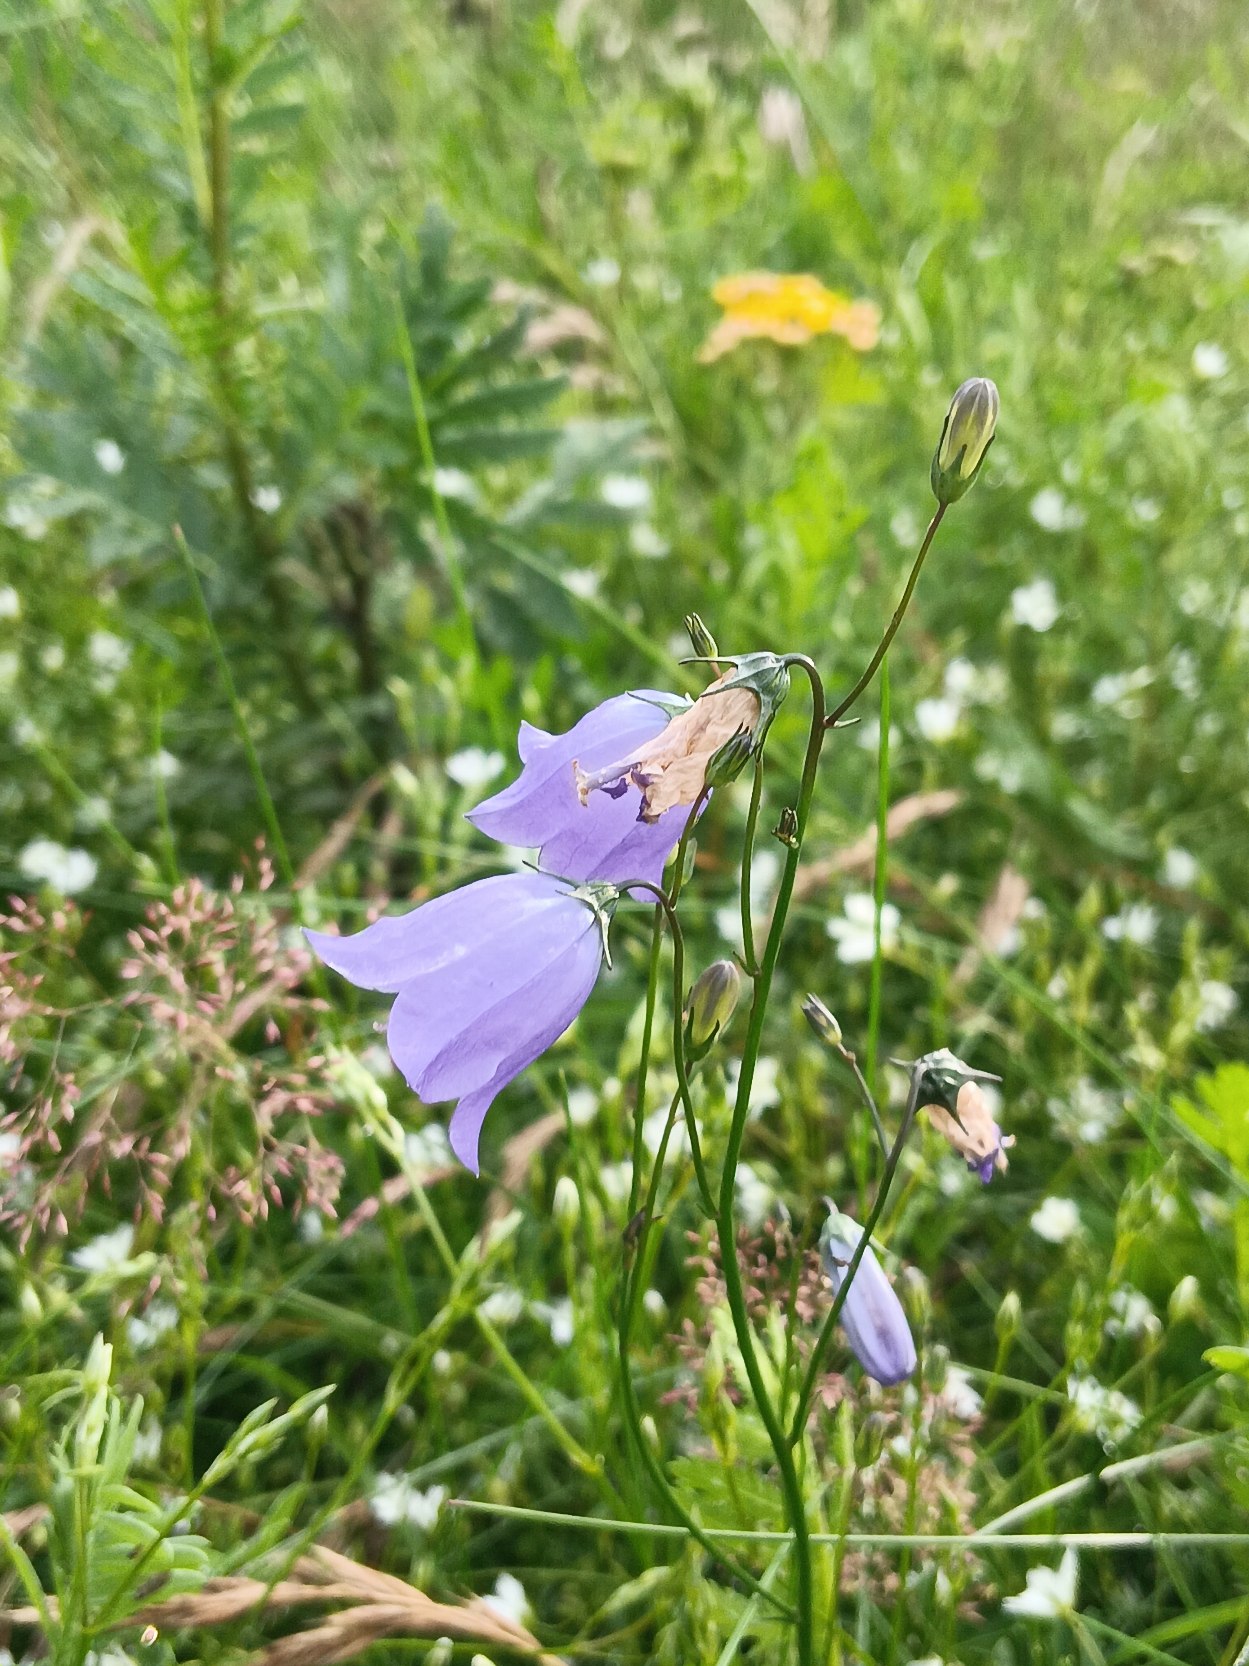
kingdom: Plantae
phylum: Tracheophyta
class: Magnoliopsida
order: Asterales
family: Campanulaceae
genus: Campanula
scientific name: Campanula rotundifolia
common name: Liden klokke
